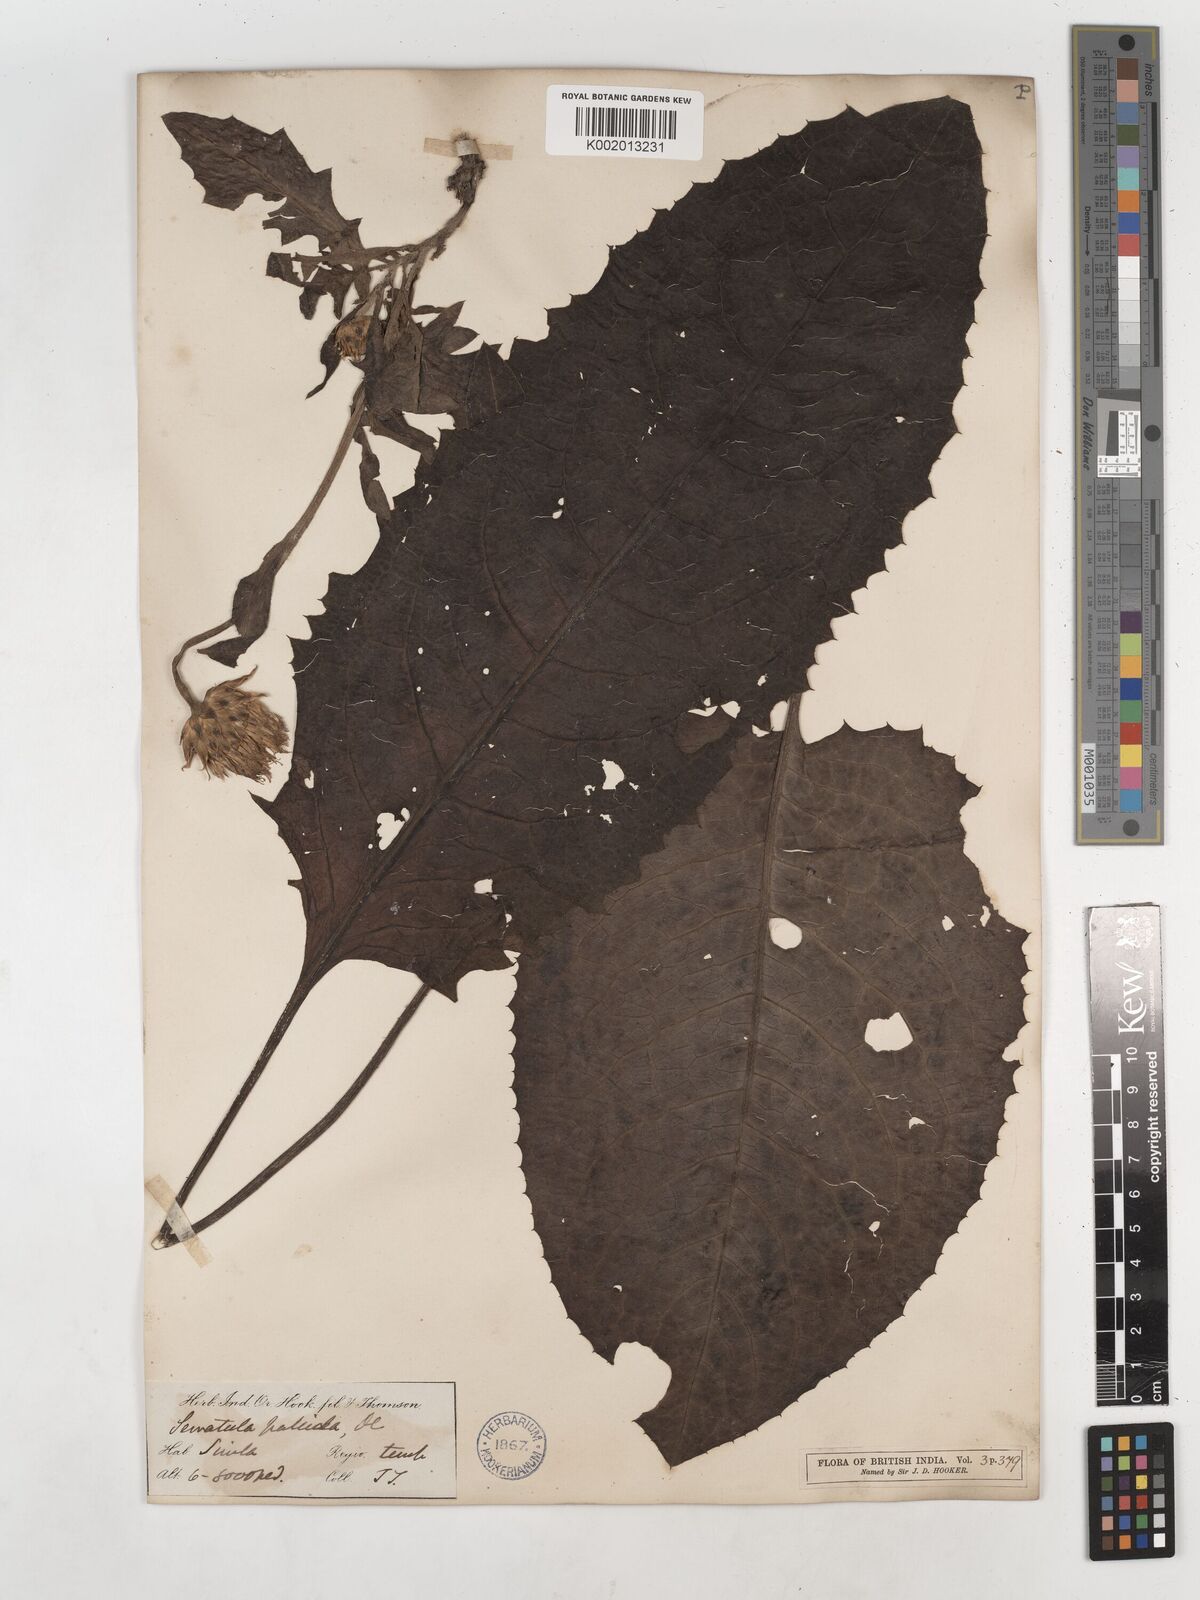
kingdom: Plantae
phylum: Tracheophyta
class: Magnoliopsida
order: Asterales
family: Asteraceae
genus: Klasea
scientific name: Klasea pallida
